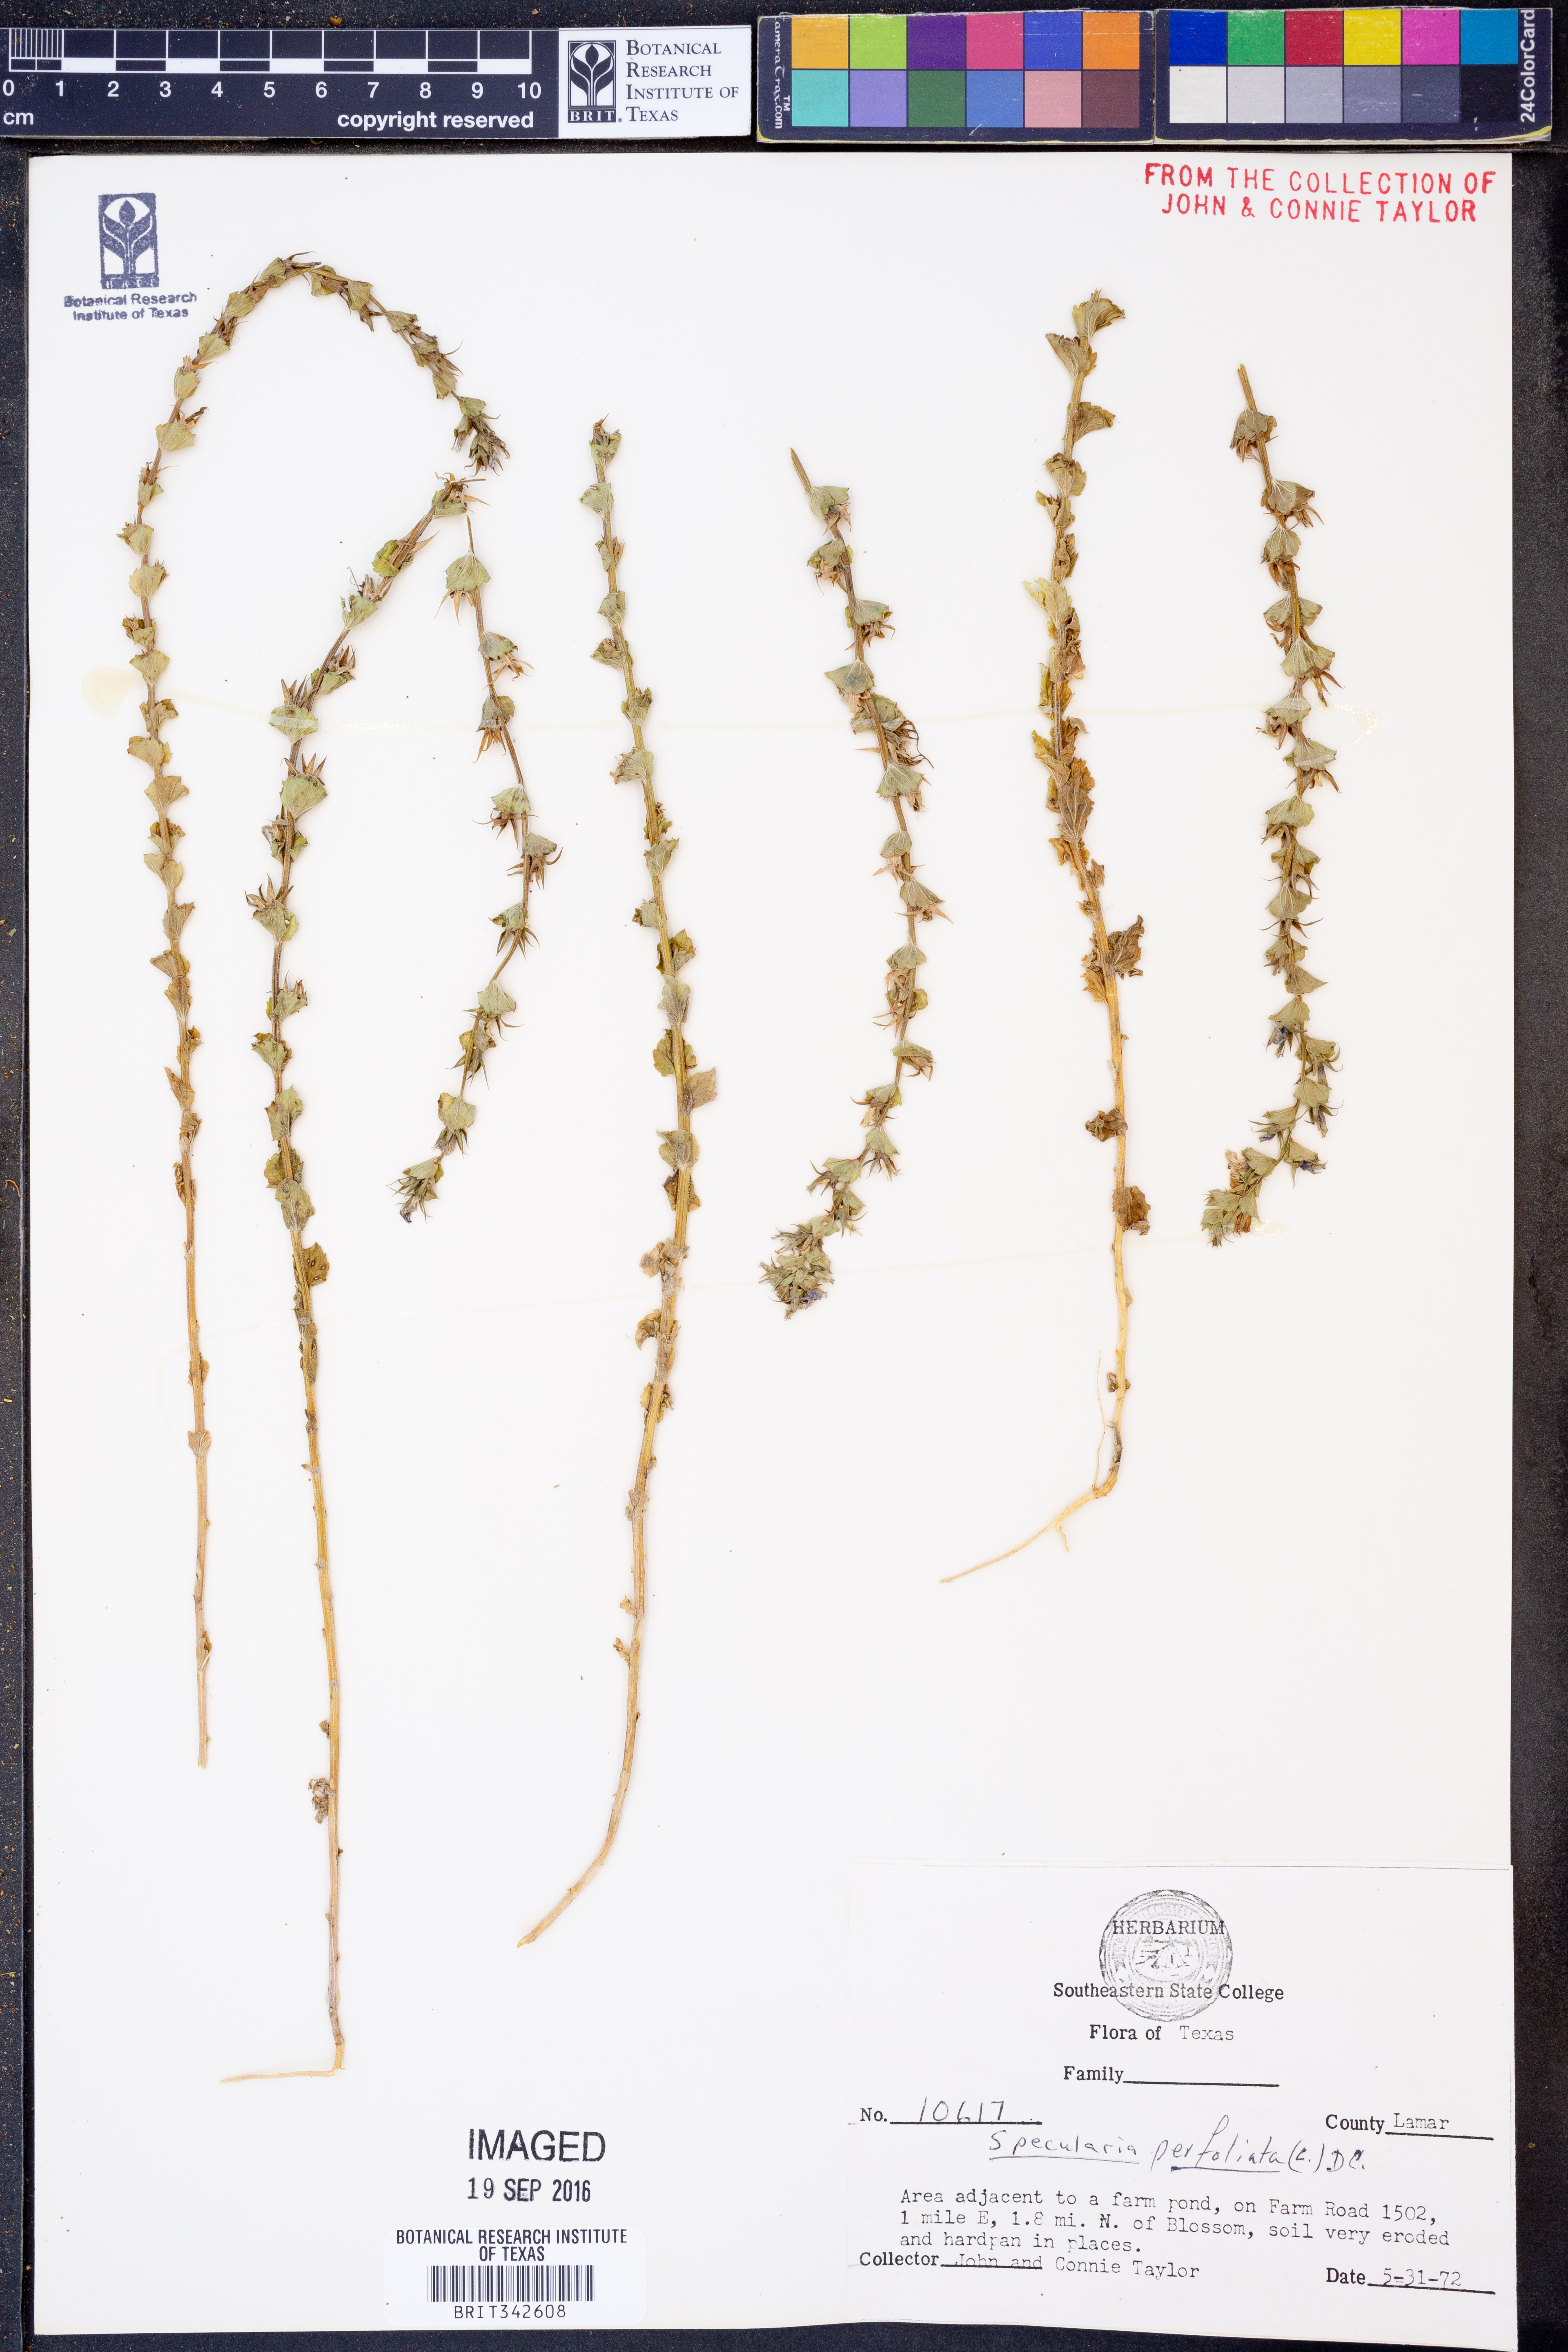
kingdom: Plantae
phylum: Tracheophyta
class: Magnoliopsida
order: Asterales
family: Campanulaceae
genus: Triodanis
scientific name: Triodanis perfoliata
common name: Clasping venus' looking-glass
